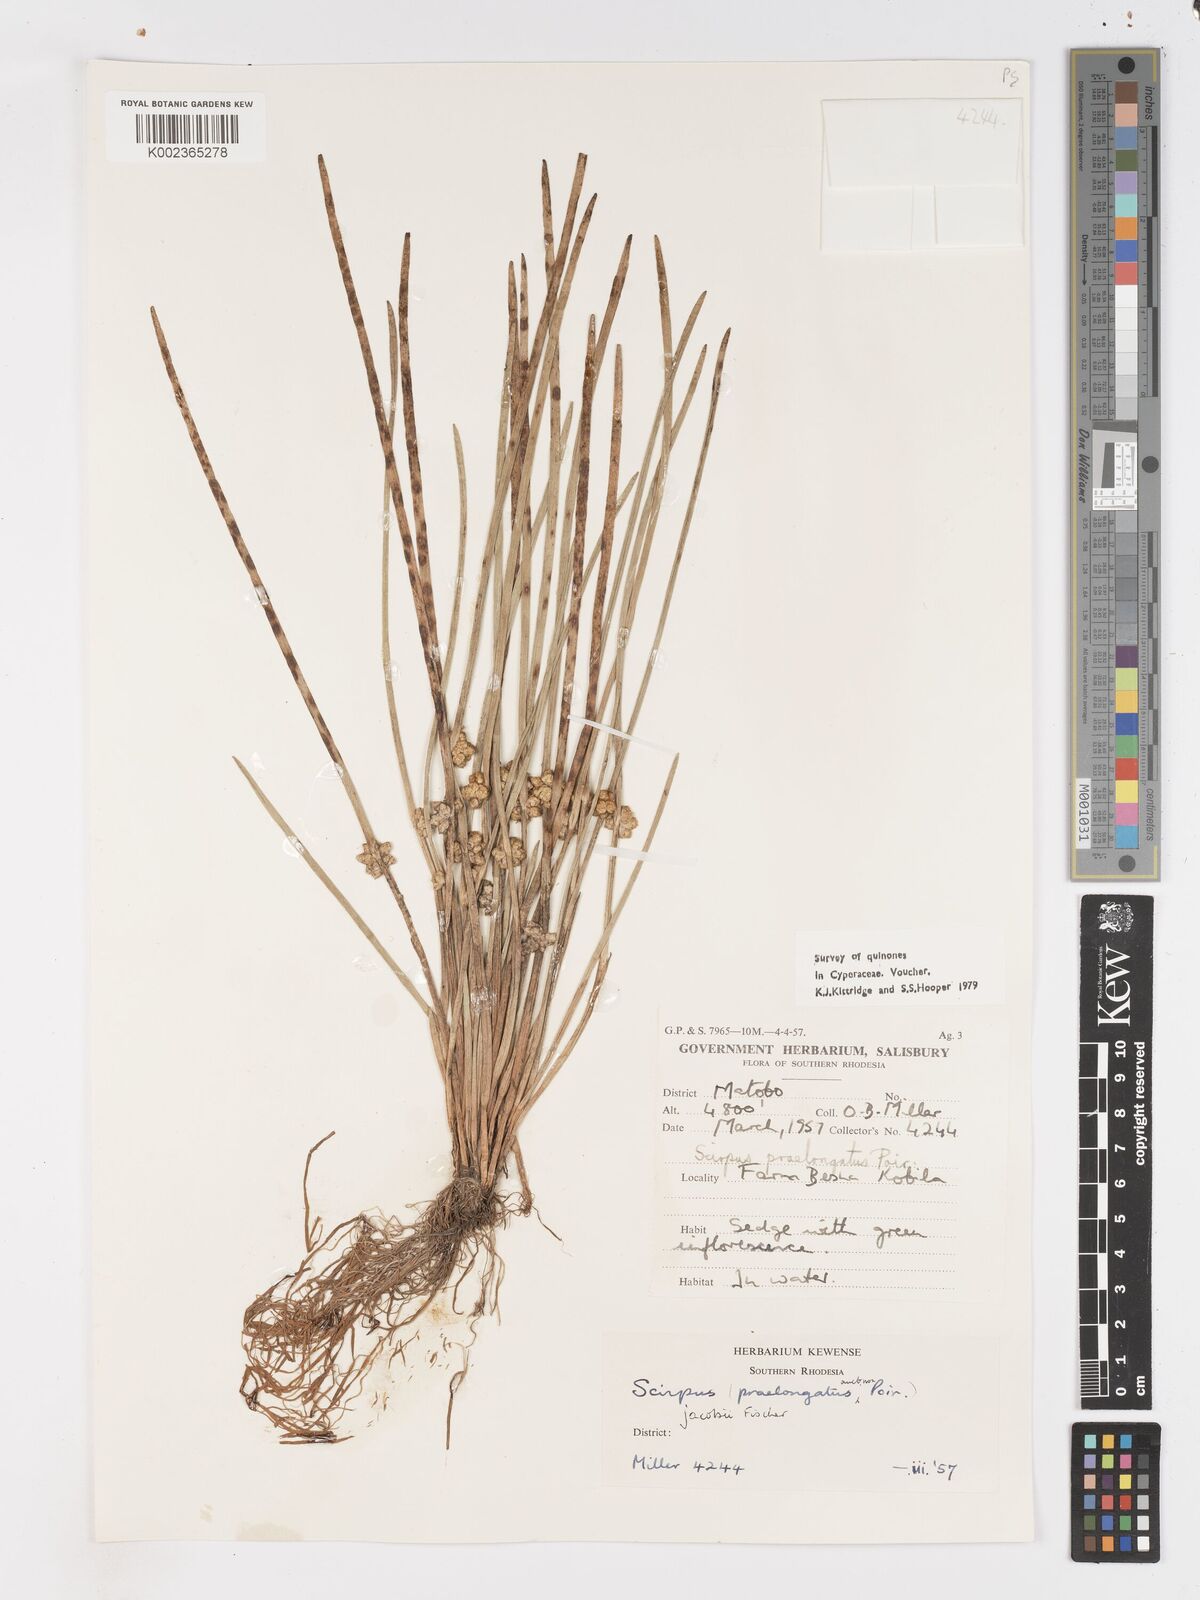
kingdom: Plantae
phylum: Tracheophyta
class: Liliopsida
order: Poales
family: Cyperaceae
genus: Schoenoplectiella
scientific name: Schoenoplectiella senegalensis
